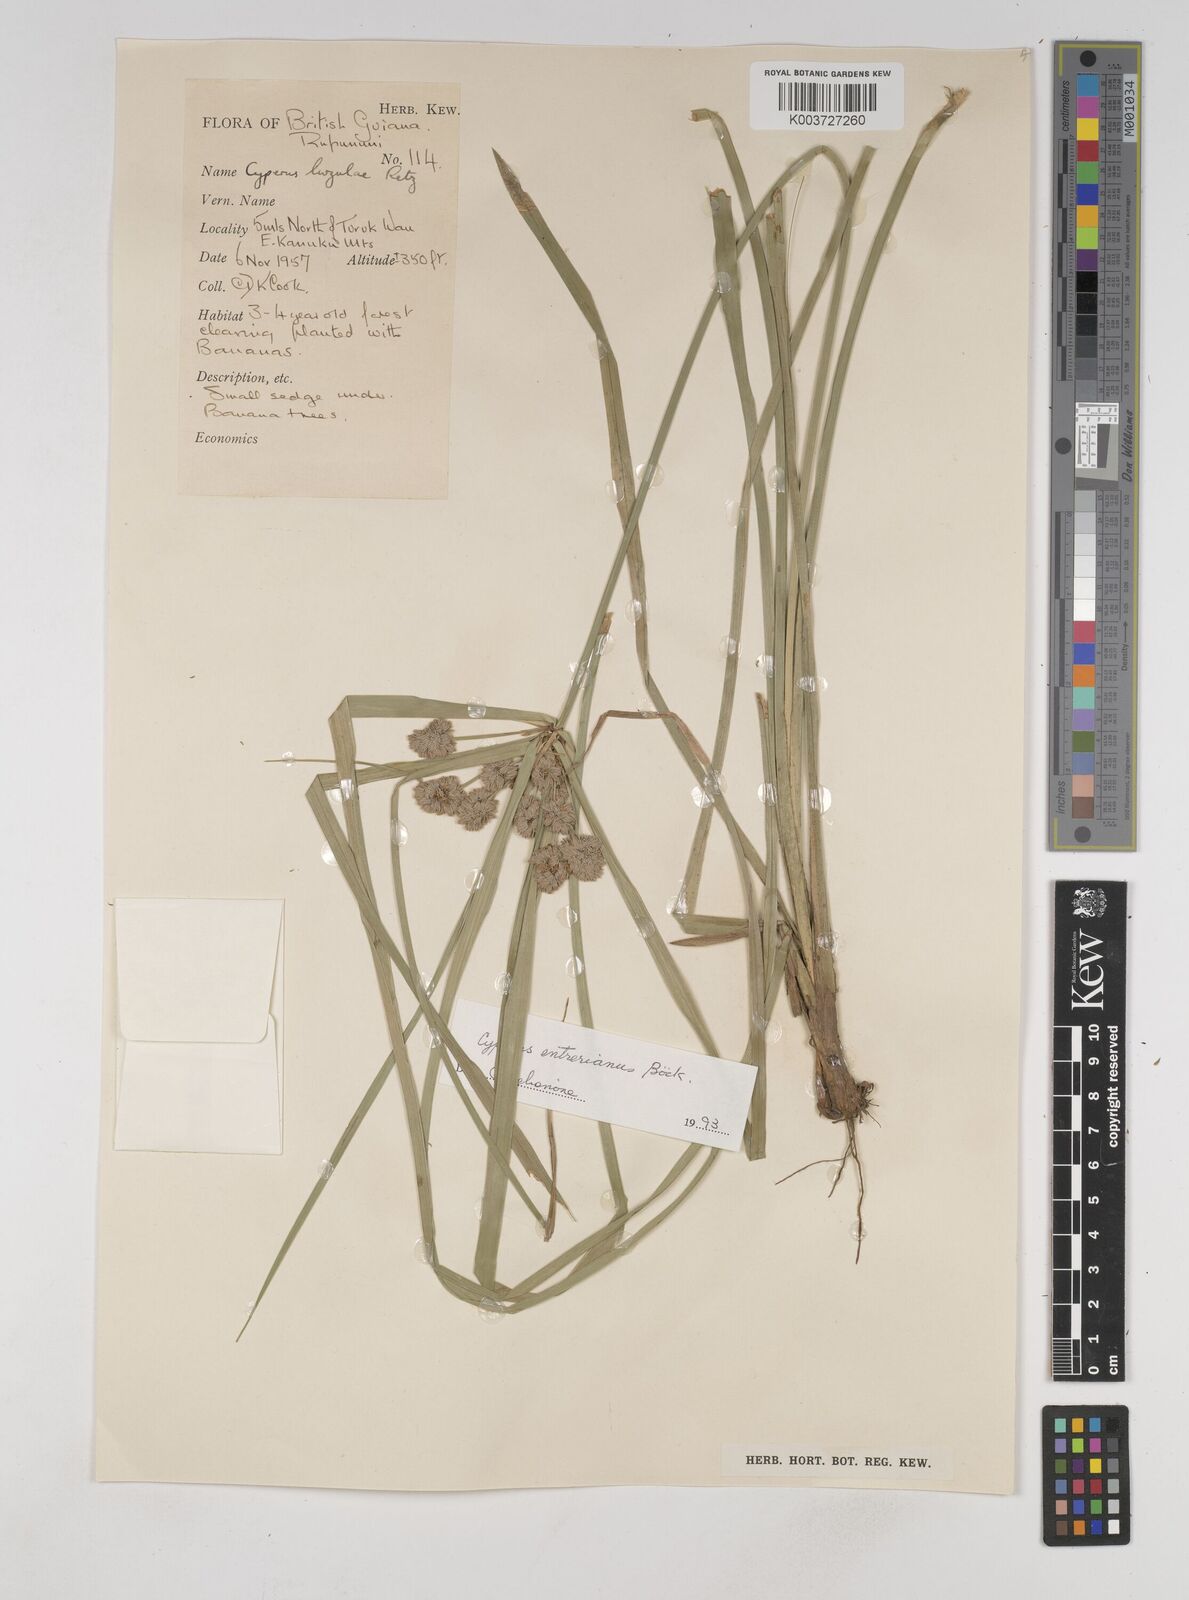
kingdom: Plantae
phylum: Tracheophyta
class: Liliopsida
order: Poales
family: Cyperaceae
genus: Cyperus
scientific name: Cyperus luzulae
